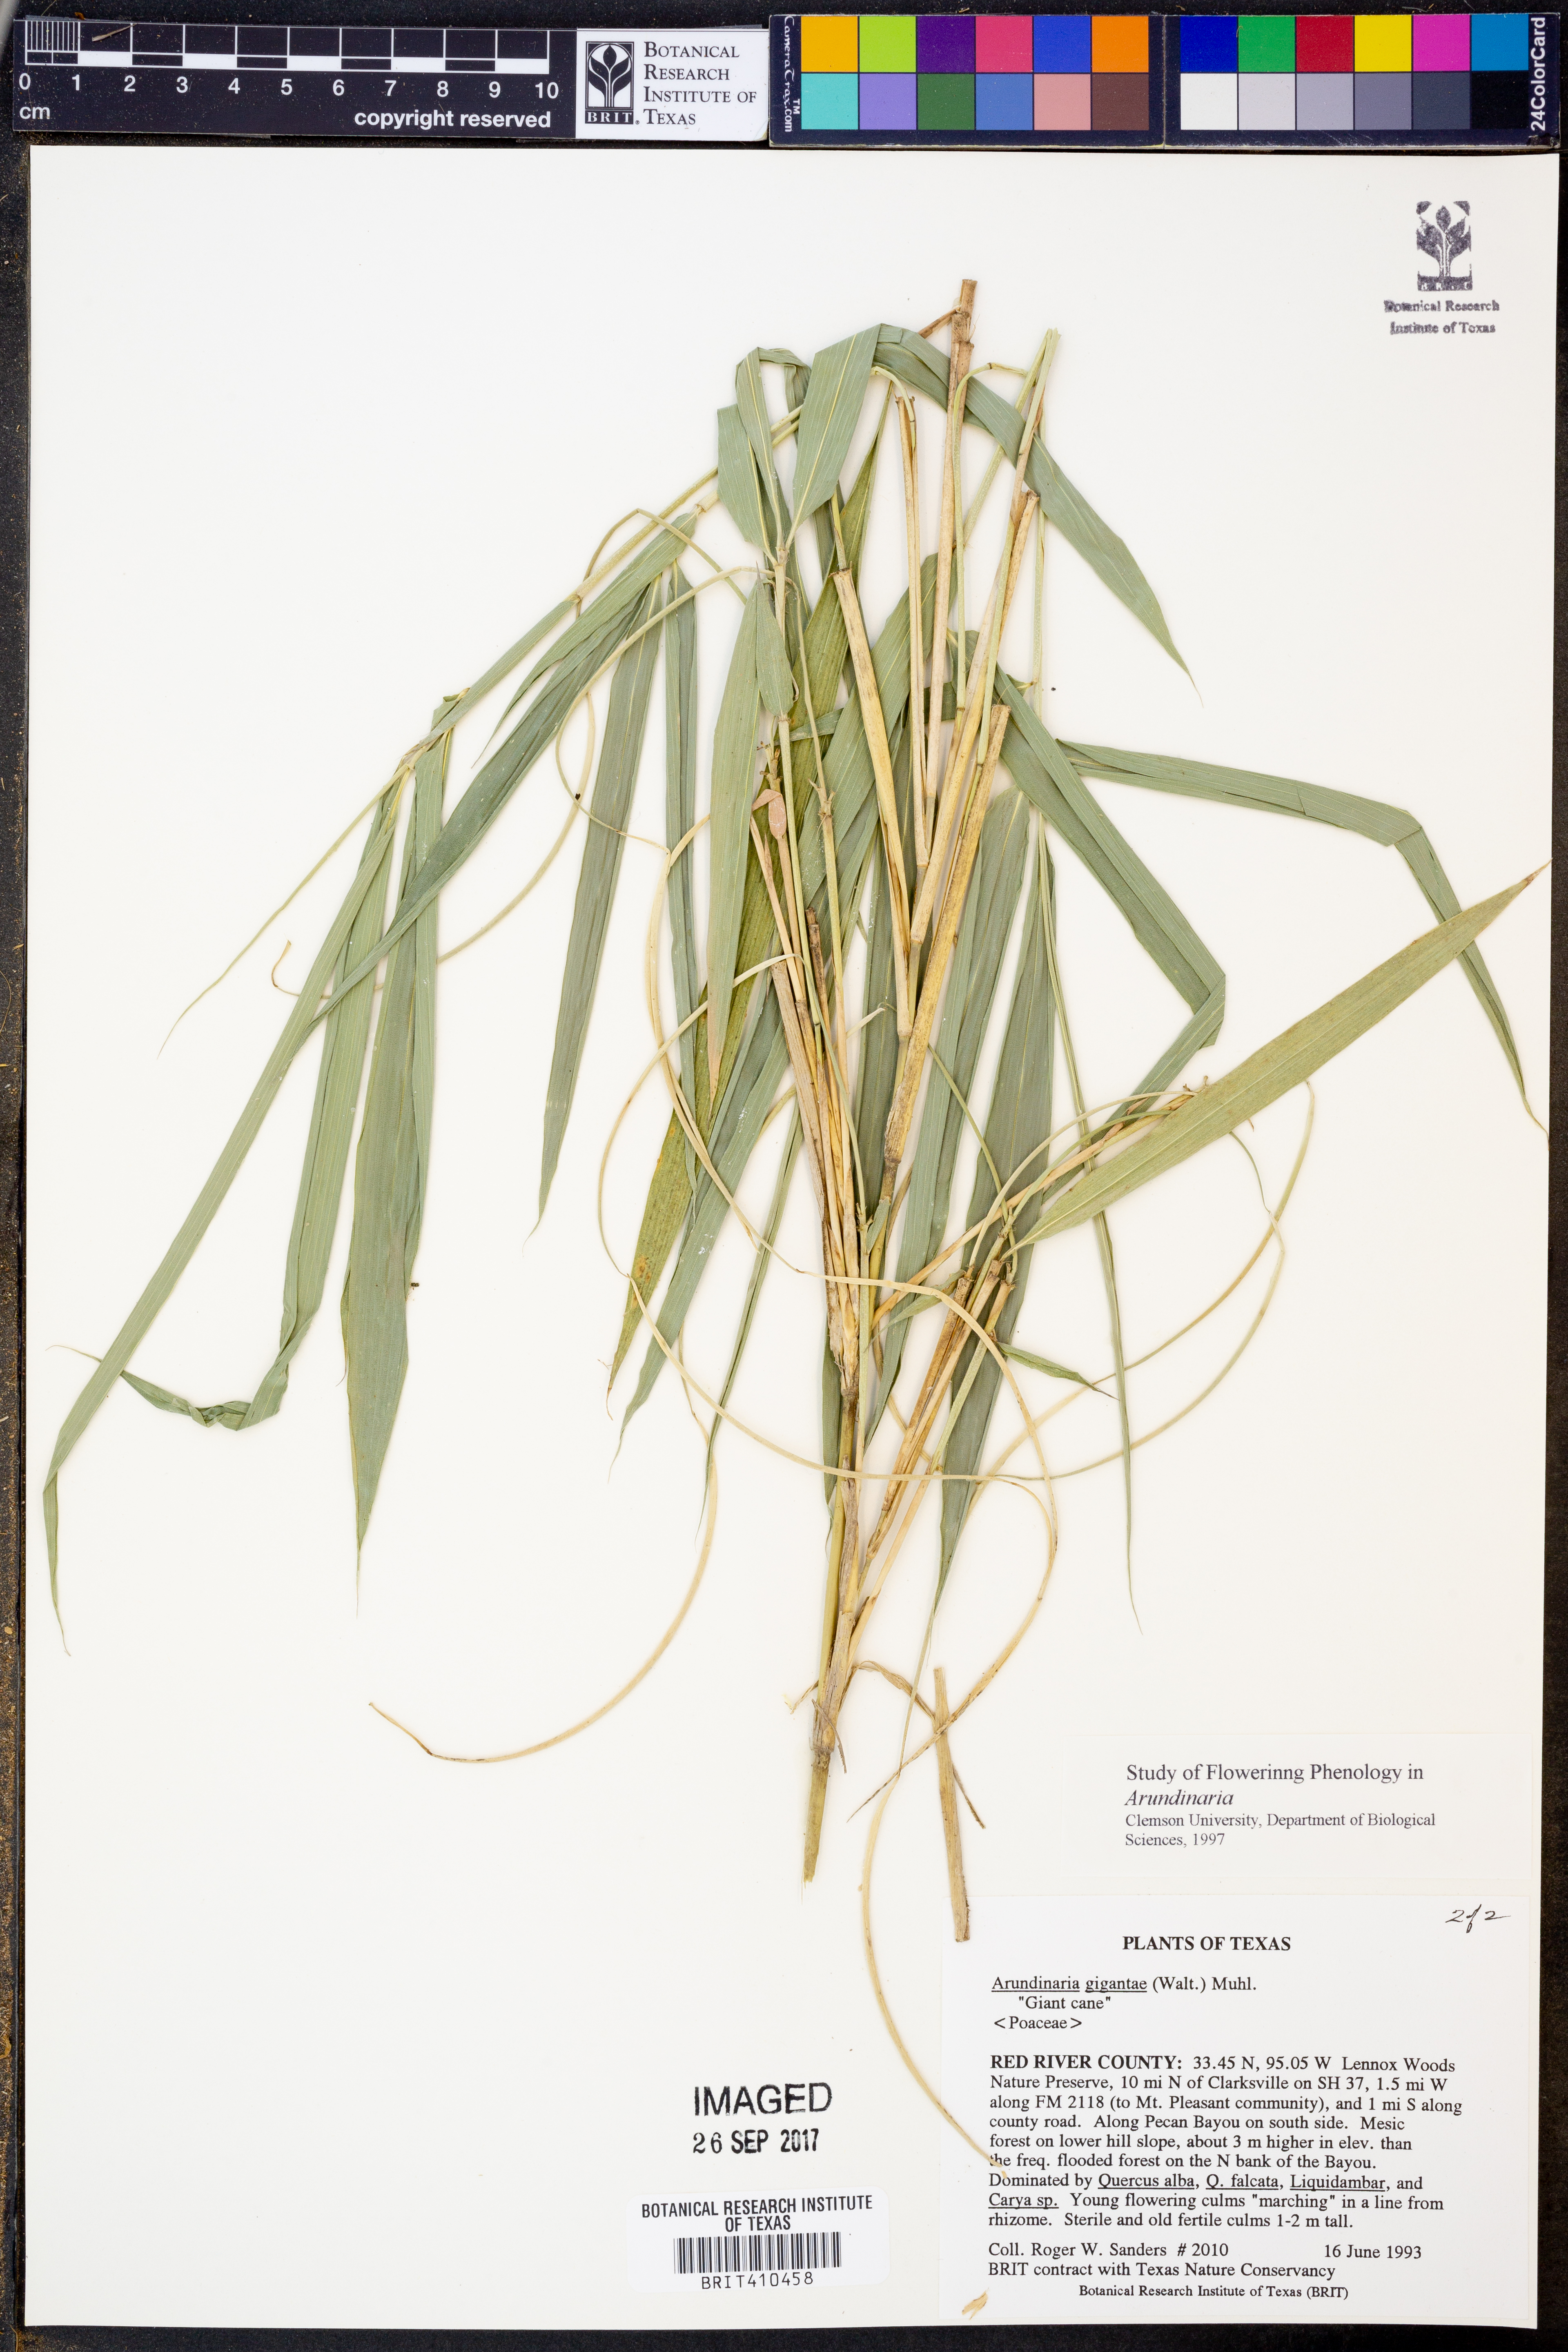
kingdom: Plantae
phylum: Tracheophyta
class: Liliopsida
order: Poales
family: Poaceae
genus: Arundinaria
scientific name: Arundinaria gigantea
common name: Giant cane
